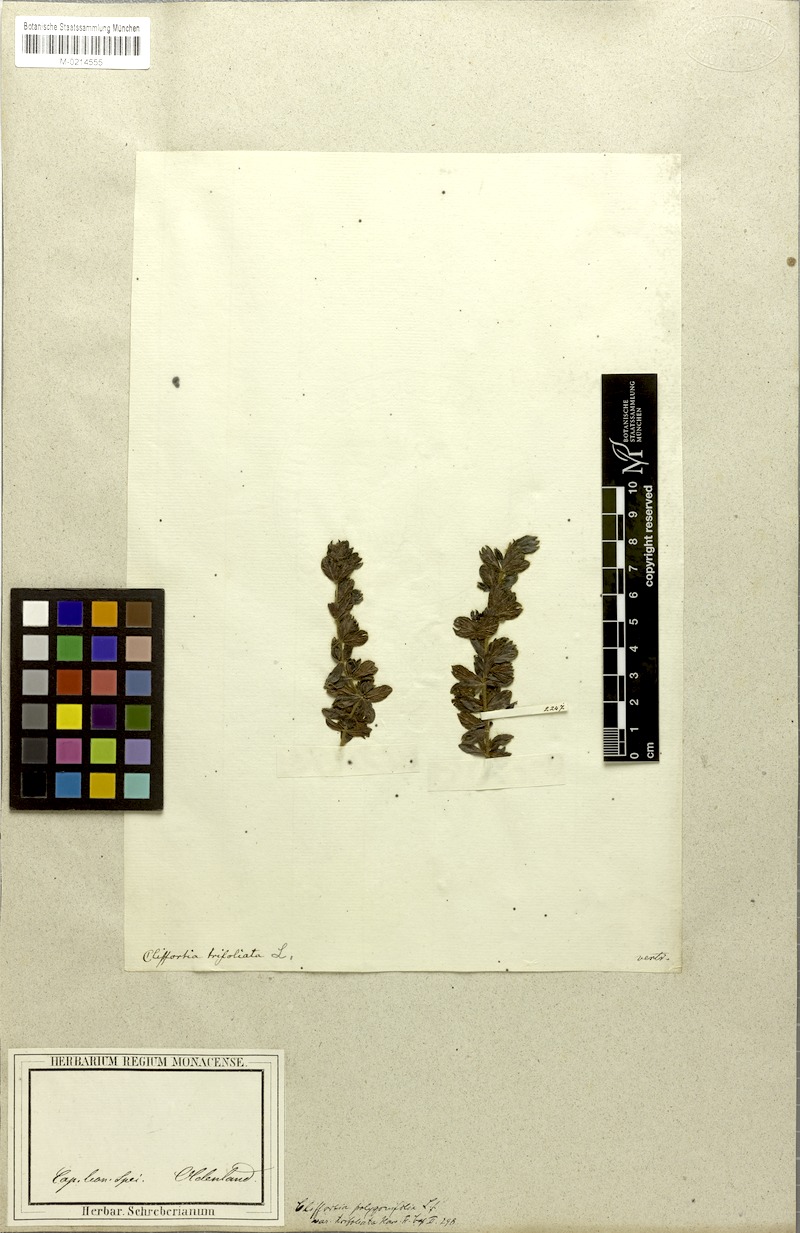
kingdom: Plantae
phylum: Tracheophyta
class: Magnoliopsida
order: Rosales
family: Rosaceae
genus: Cliffortia
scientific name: Cliffortia polygonifolia
